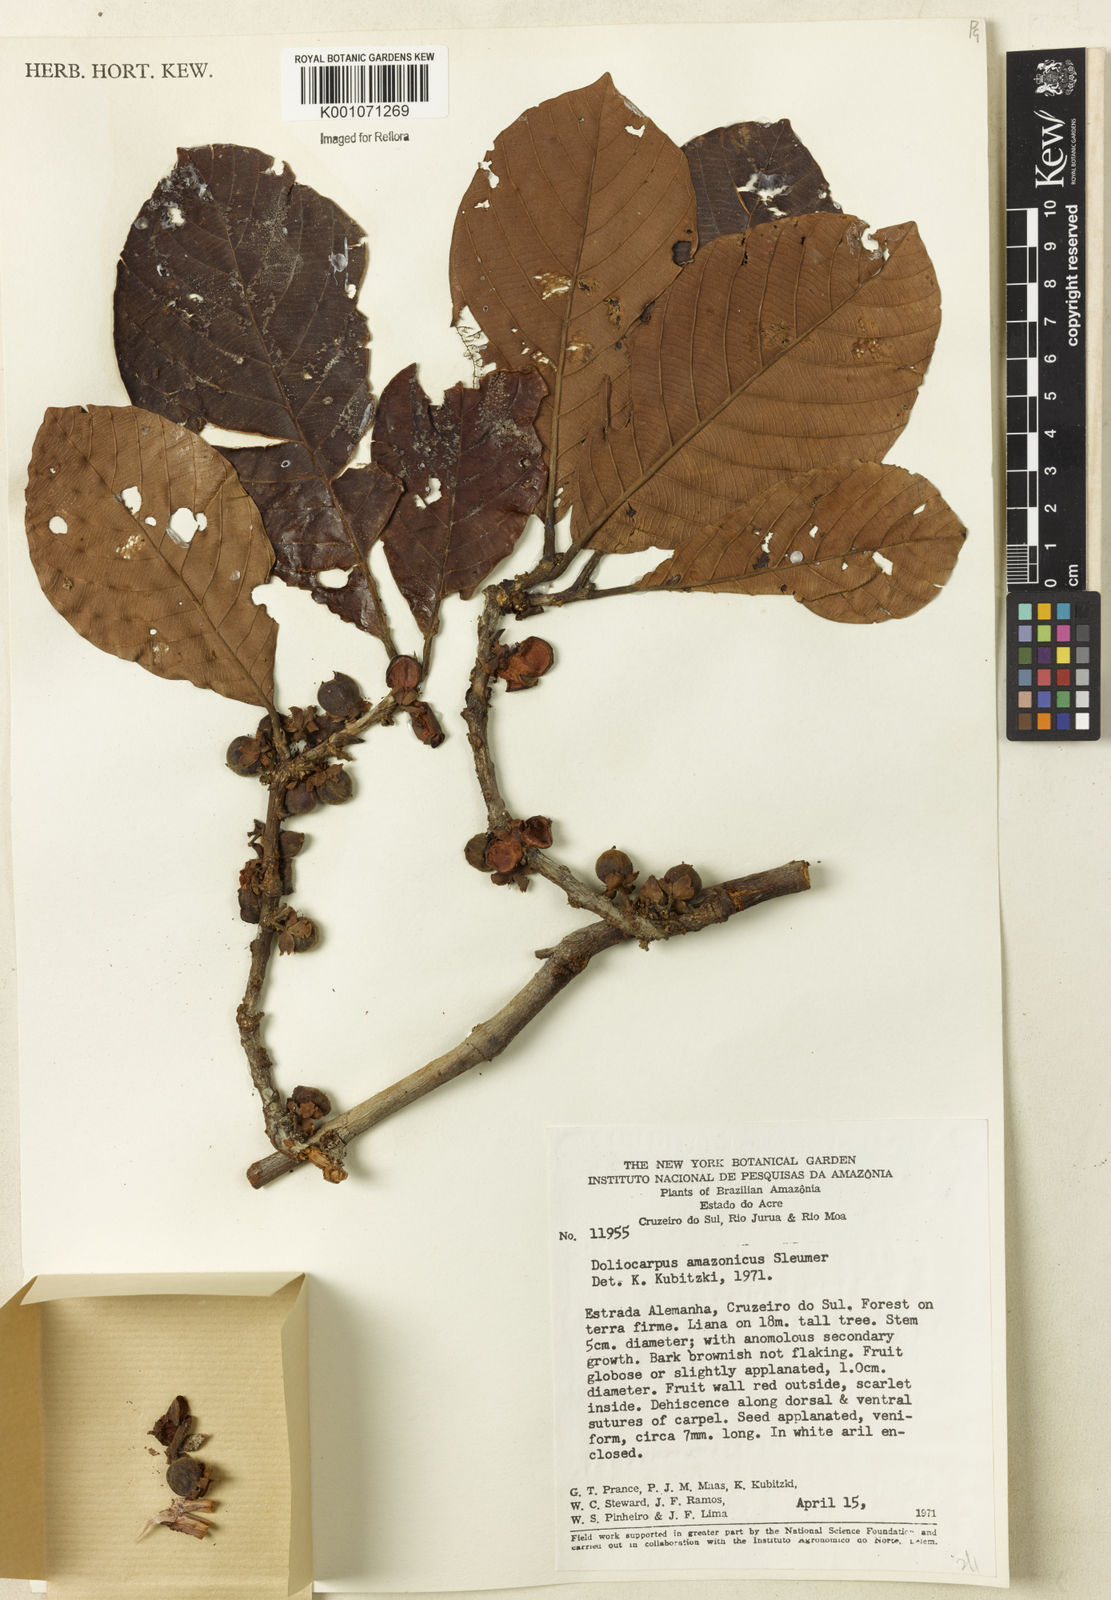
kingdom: Plantae
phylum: Tracheophyta
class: Magnoliopsida
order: Dilleniales
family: Dilleniaceae
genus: Doliocarpus
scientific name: Doliocarpus amazonicus
